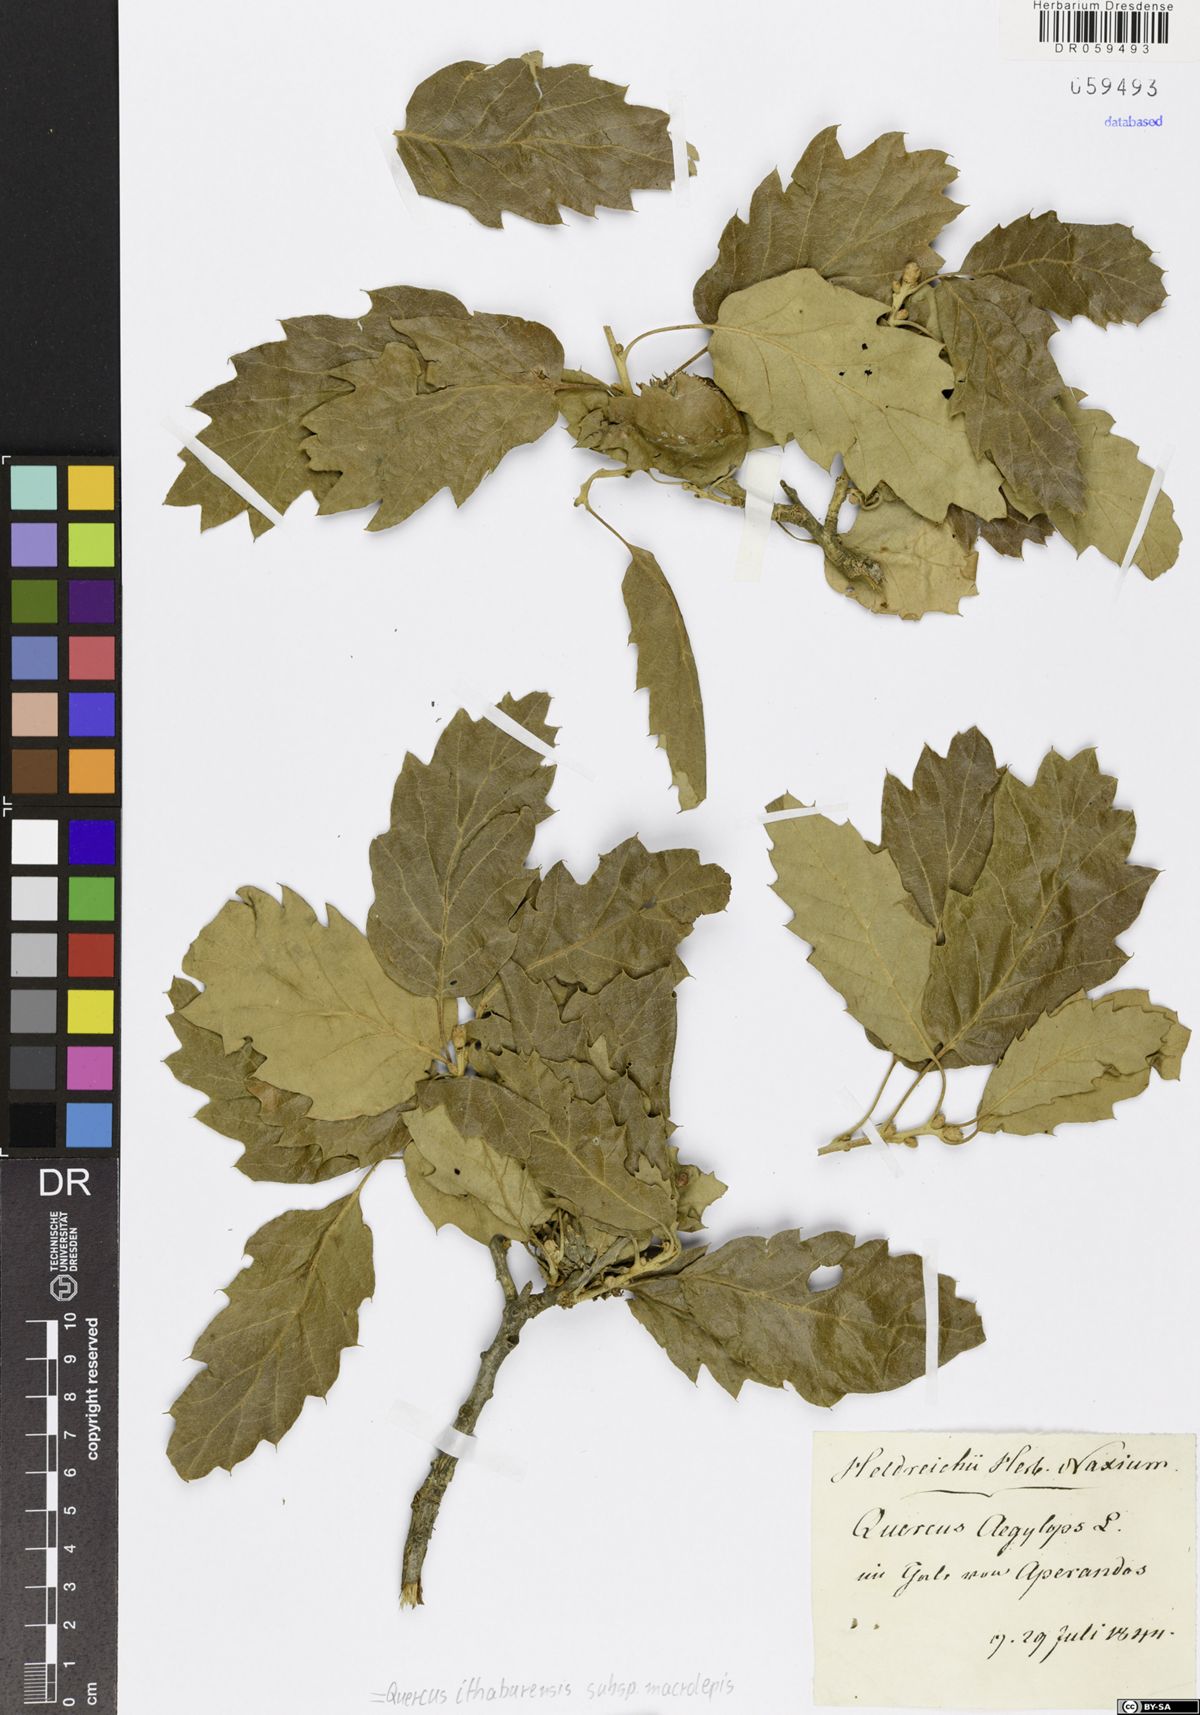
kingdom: Plantae
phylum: Tracheophyta
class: Magnoliopsida
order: Fagales
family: Fagaceae
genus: Quercus
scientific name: Quercus ithaburensis
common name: Tabor oak
